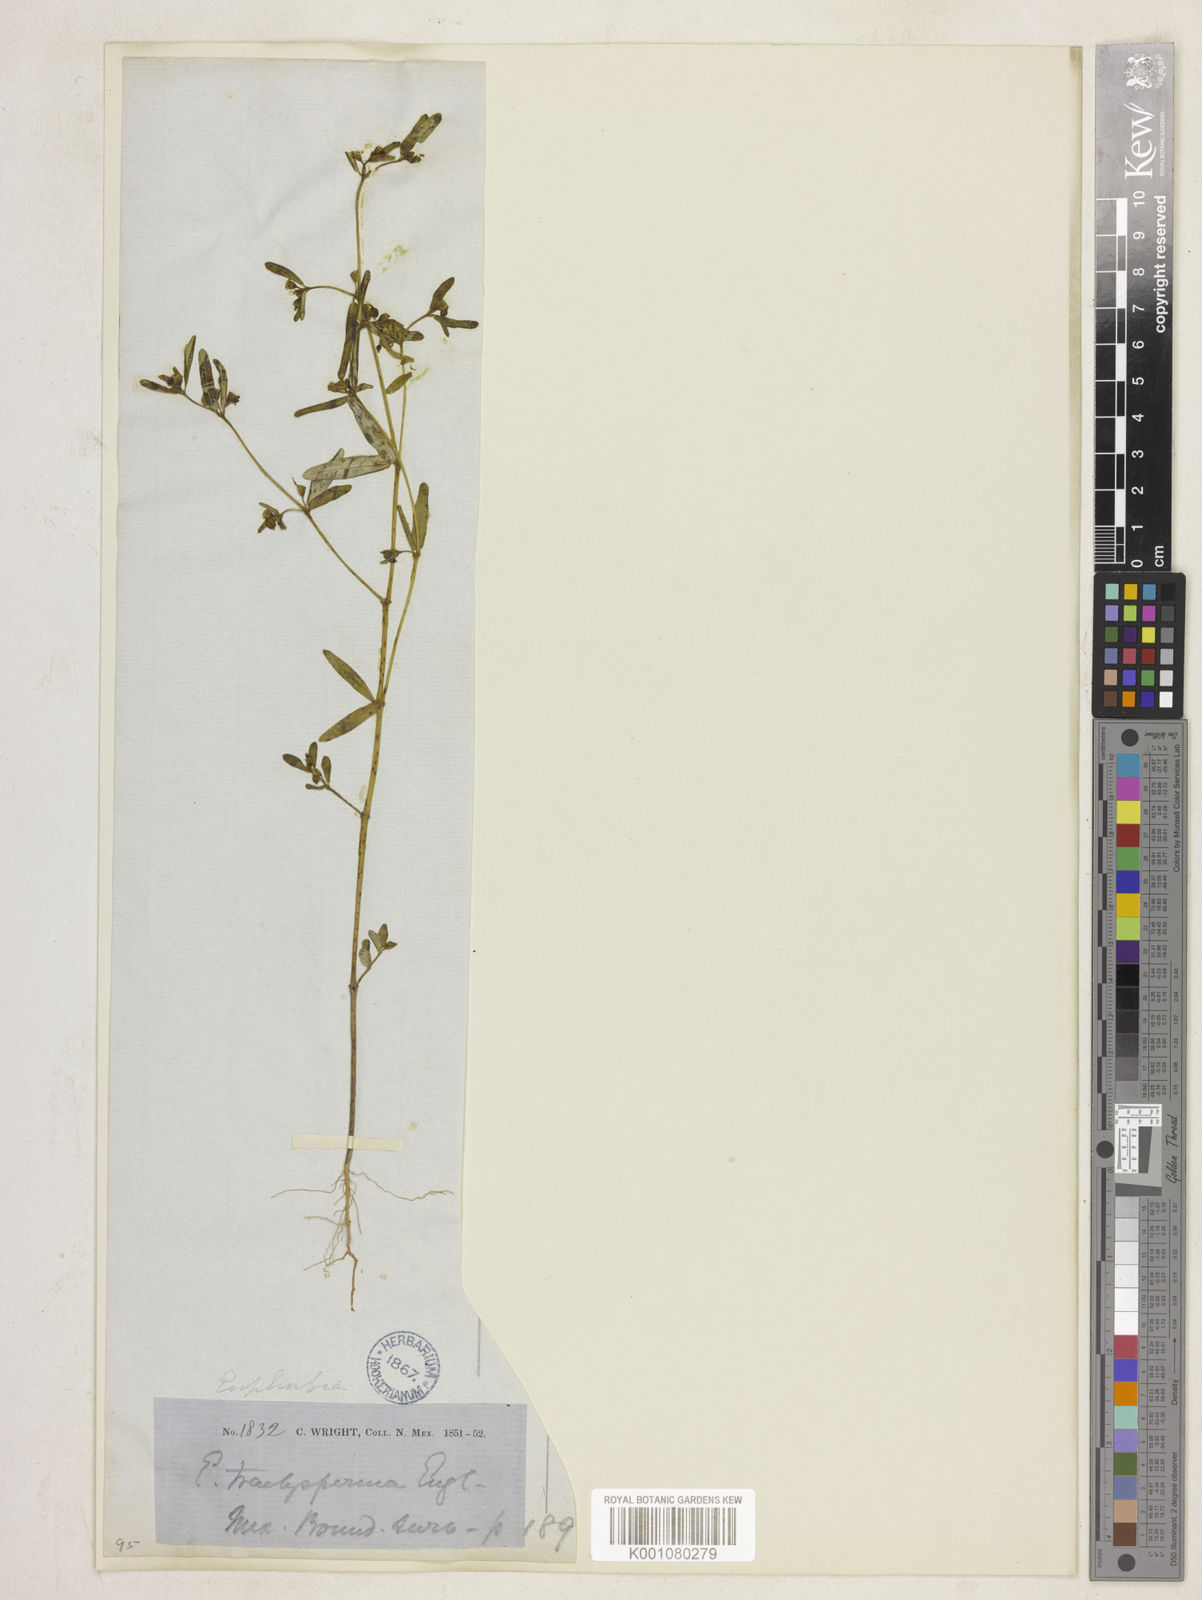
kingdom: Plantae
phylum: Tracheophyta
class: Magnoliopsida
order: Malpighiales
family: Euphorbiaceae
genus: Euphorbia
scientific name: Euphorbia trachysperma
